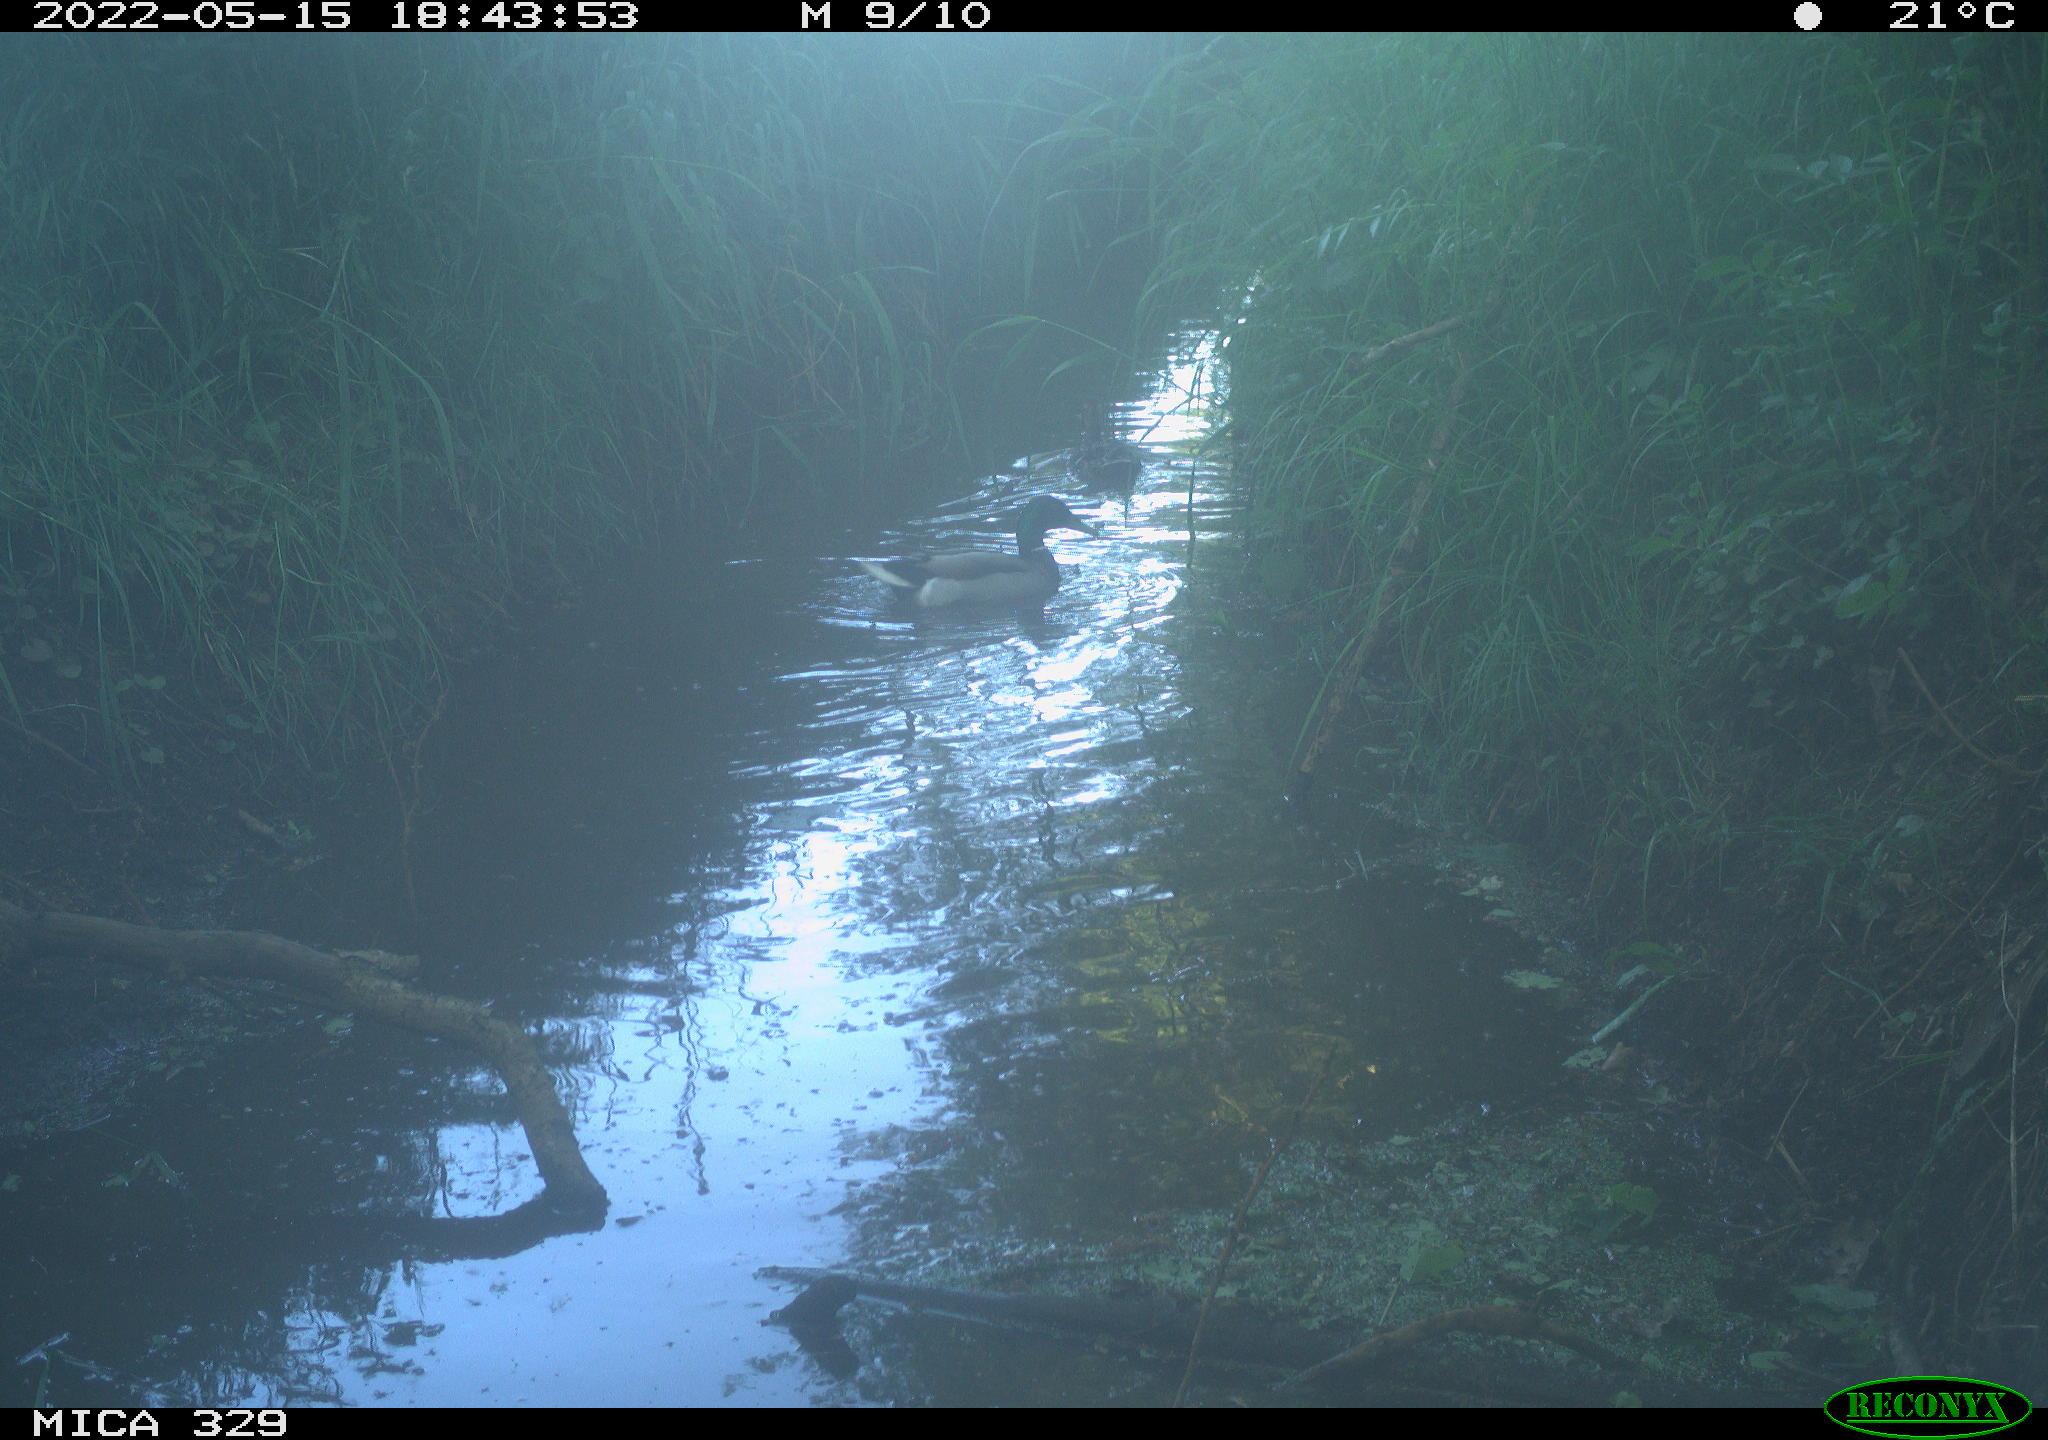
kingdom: Animalia
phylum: Chordata
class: Aves
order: Anseriformes
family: Anatidae
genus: Anas
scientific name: Anas platyrhynchos
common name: Mallard
